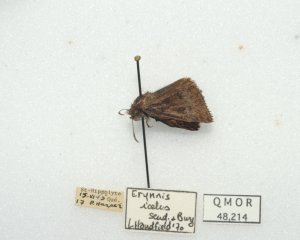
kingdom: Animalia
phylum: Arthropoda
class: Insecta
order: Lepidoptera
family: Hesperiidae
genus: Erynnis
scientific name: Erynnis icelus
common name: Dreamy Duskywing
